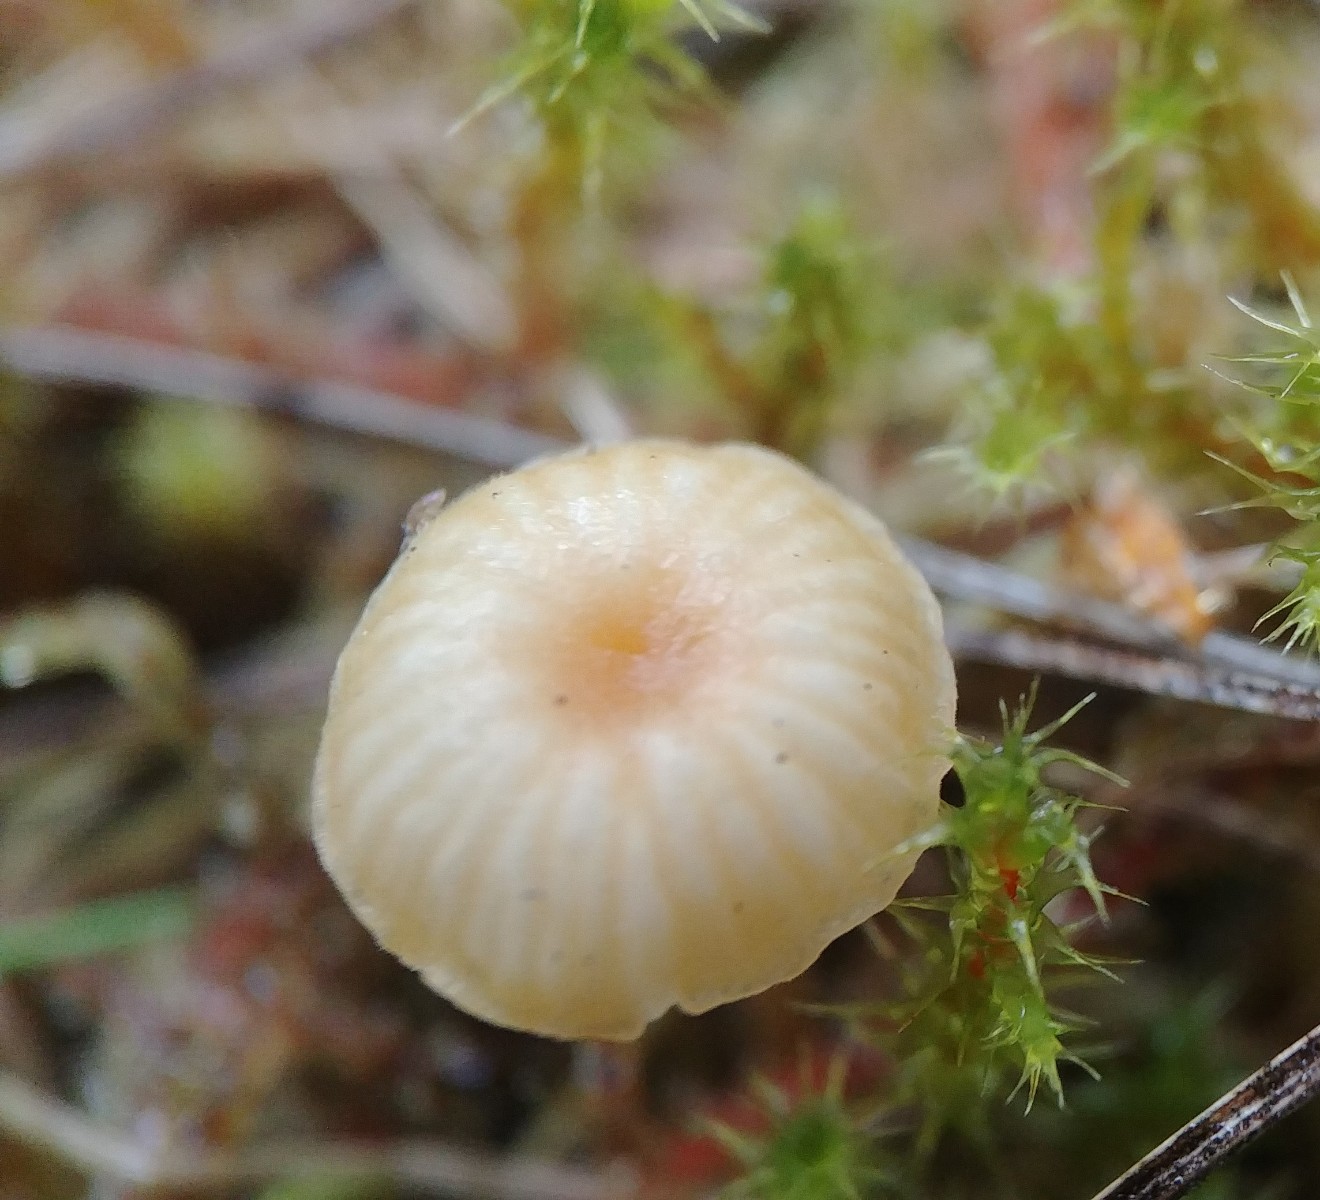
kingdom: Fungi
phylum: Basidiomycota
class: Agaricomycetes
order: Hymenochaetales
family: Rickenellaceae
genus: Rickenella
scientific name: Rickenella fibula
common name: orange mosnavlehat
